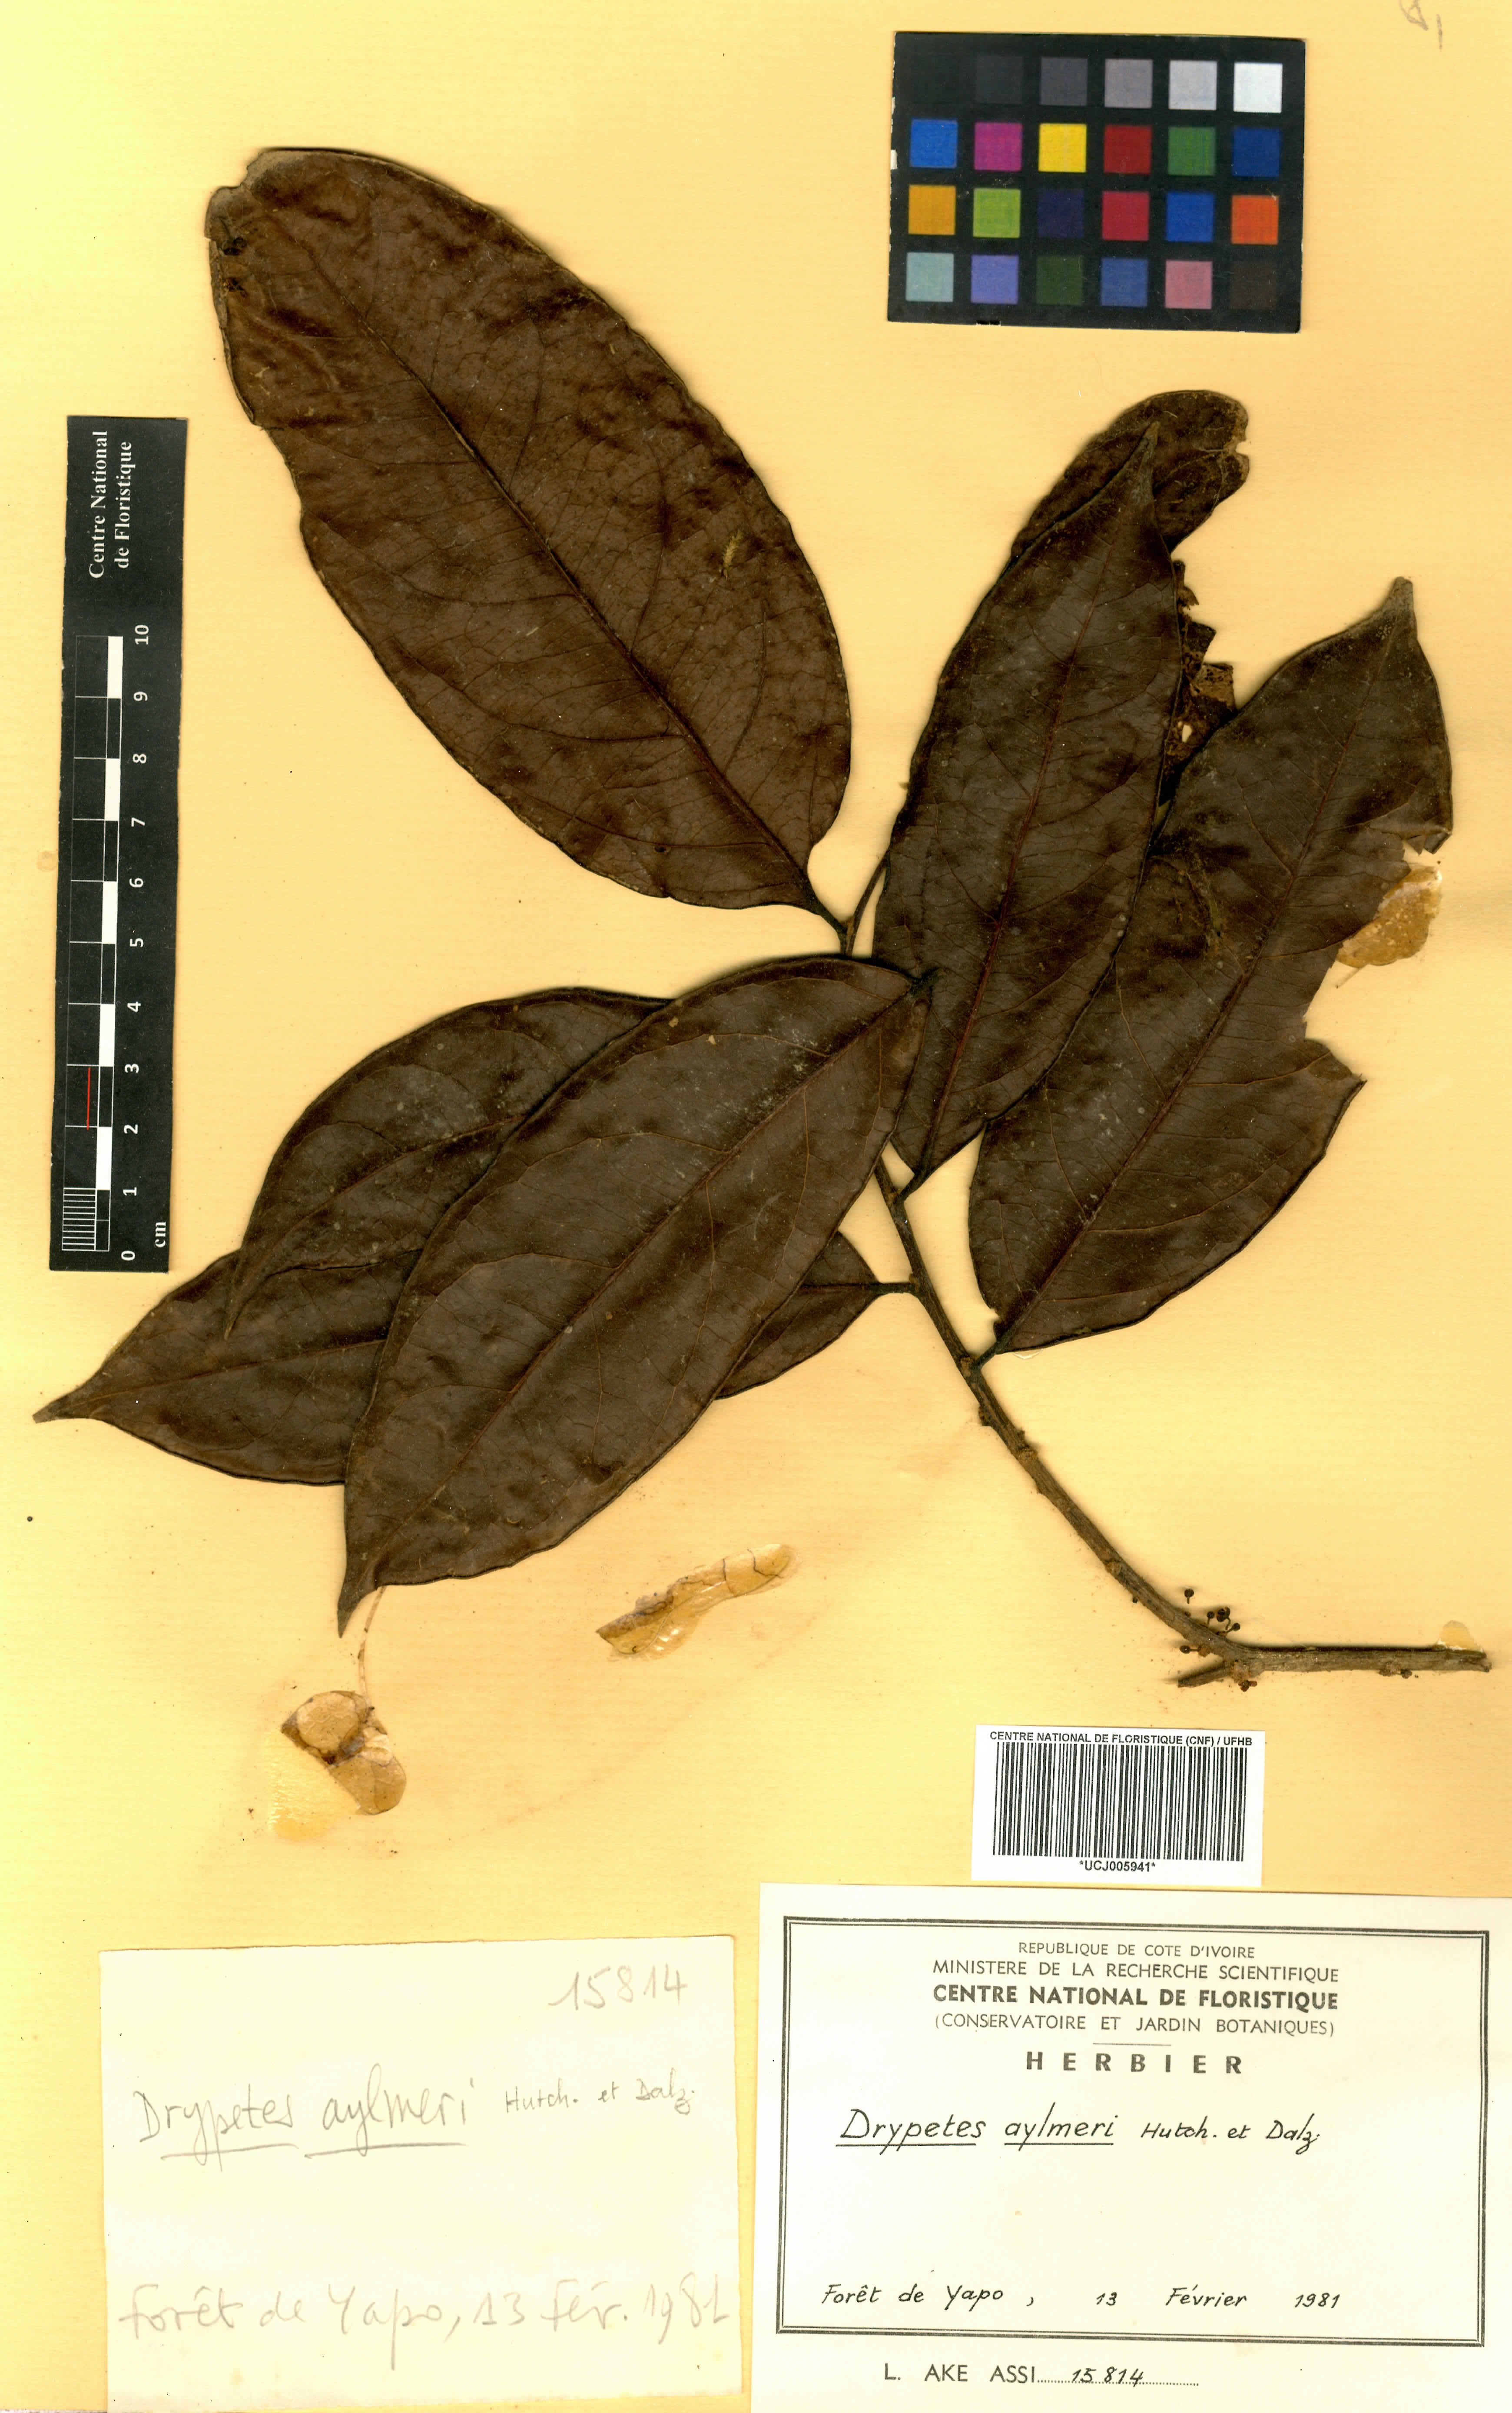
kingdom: Plantae
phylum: Tracheophyta
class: Magnoliopsida
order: Malpighiales
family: Putranjivaceae
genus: Drypetes
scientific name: Drypetes aylmeri
